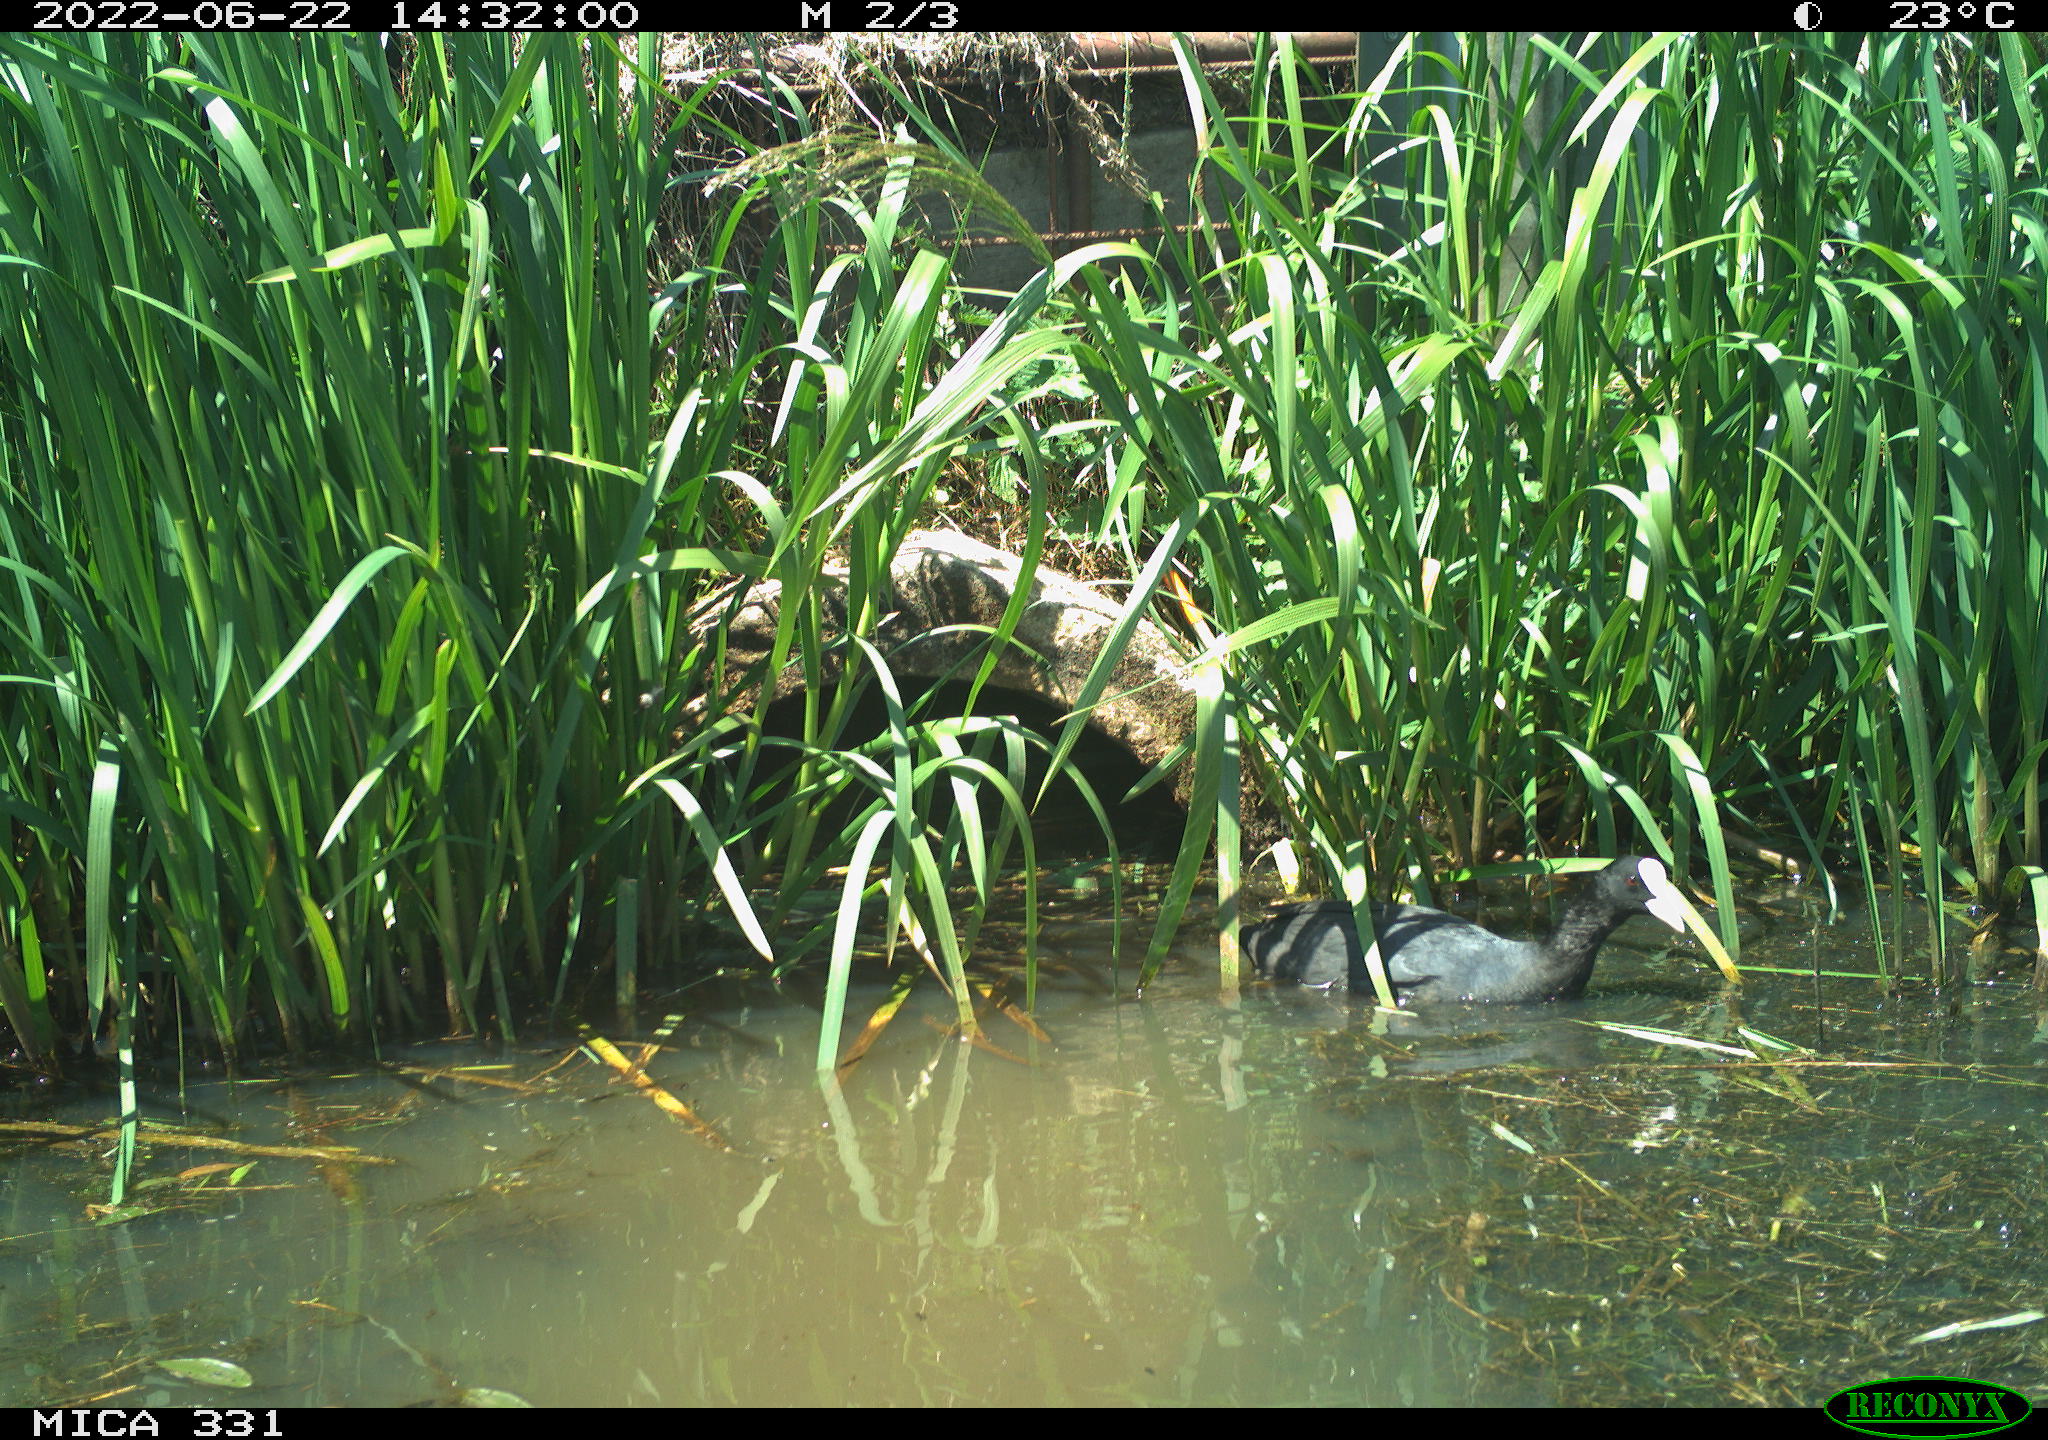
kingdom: Animalia
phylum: Chordata
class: Aves
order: Gruiformes
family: Rallidae
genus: Fulica
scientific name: Fulica atra
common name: Eurasian coot
